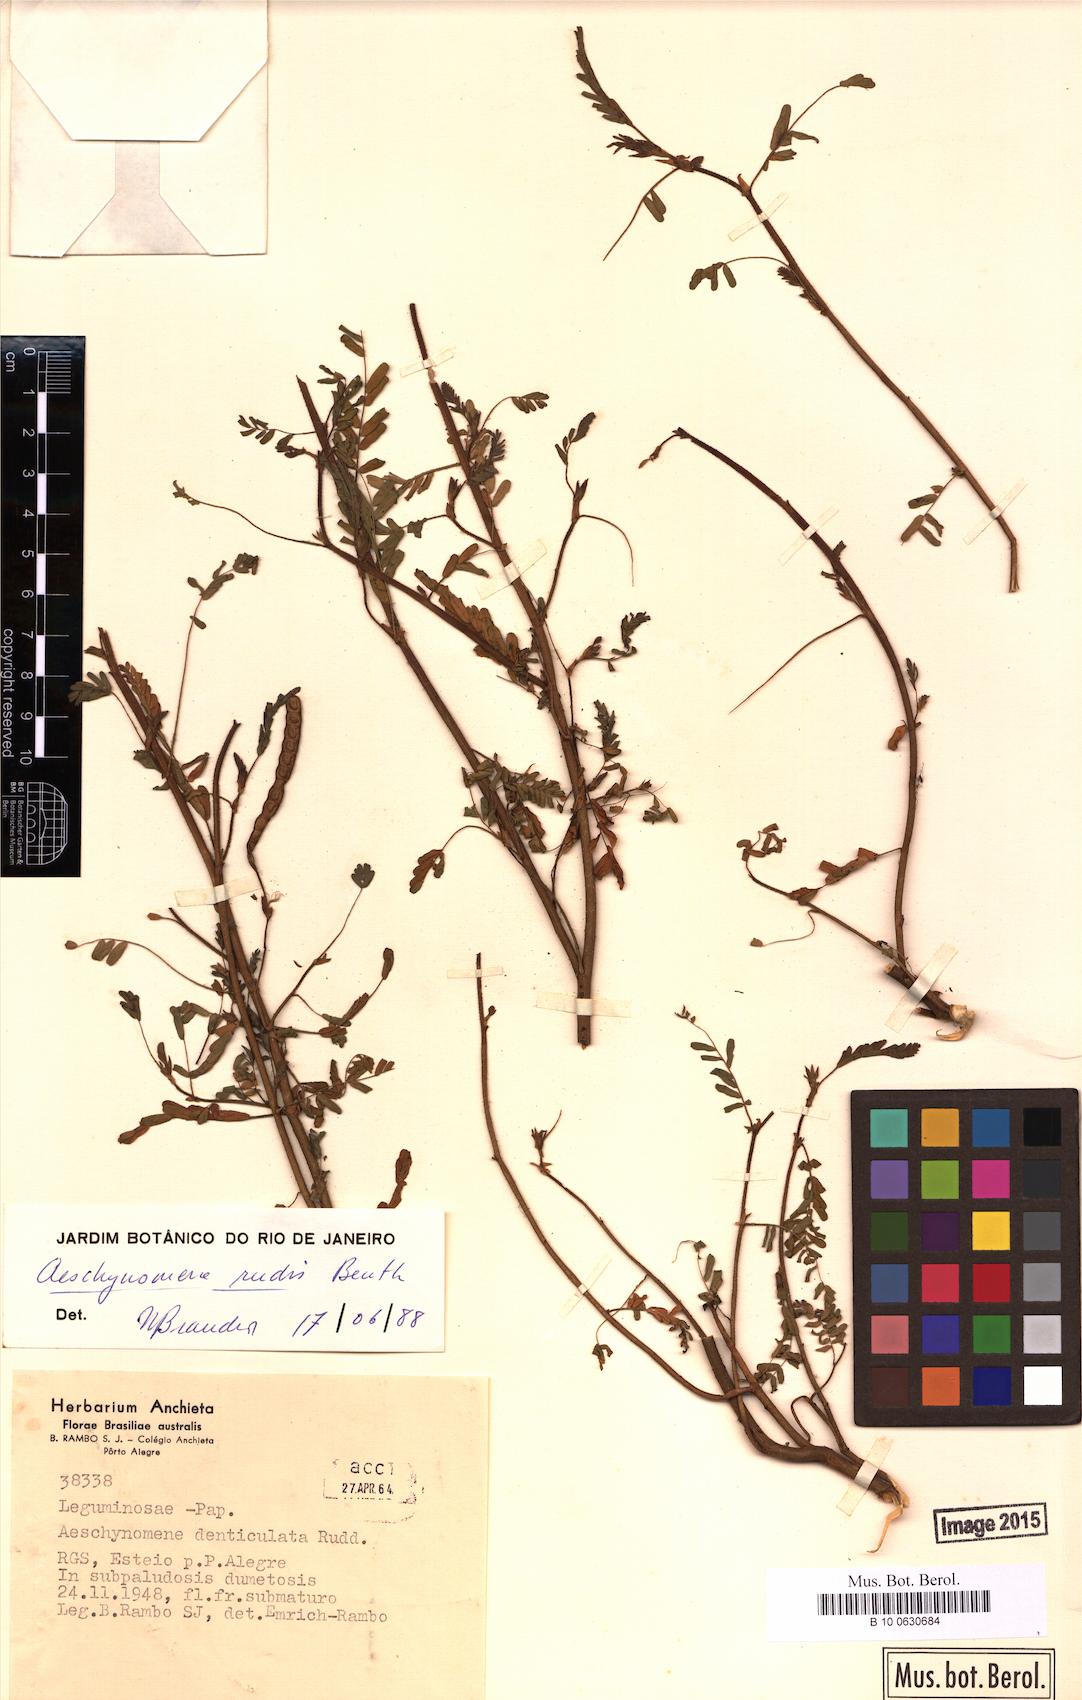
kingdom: Plantae
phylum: Tracheophyta
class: Magnoliopsida
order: Fabales
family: Fabaceae
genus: Aeschynomene
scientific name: Aeschynomene rudis
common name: Rough joint-vetch
